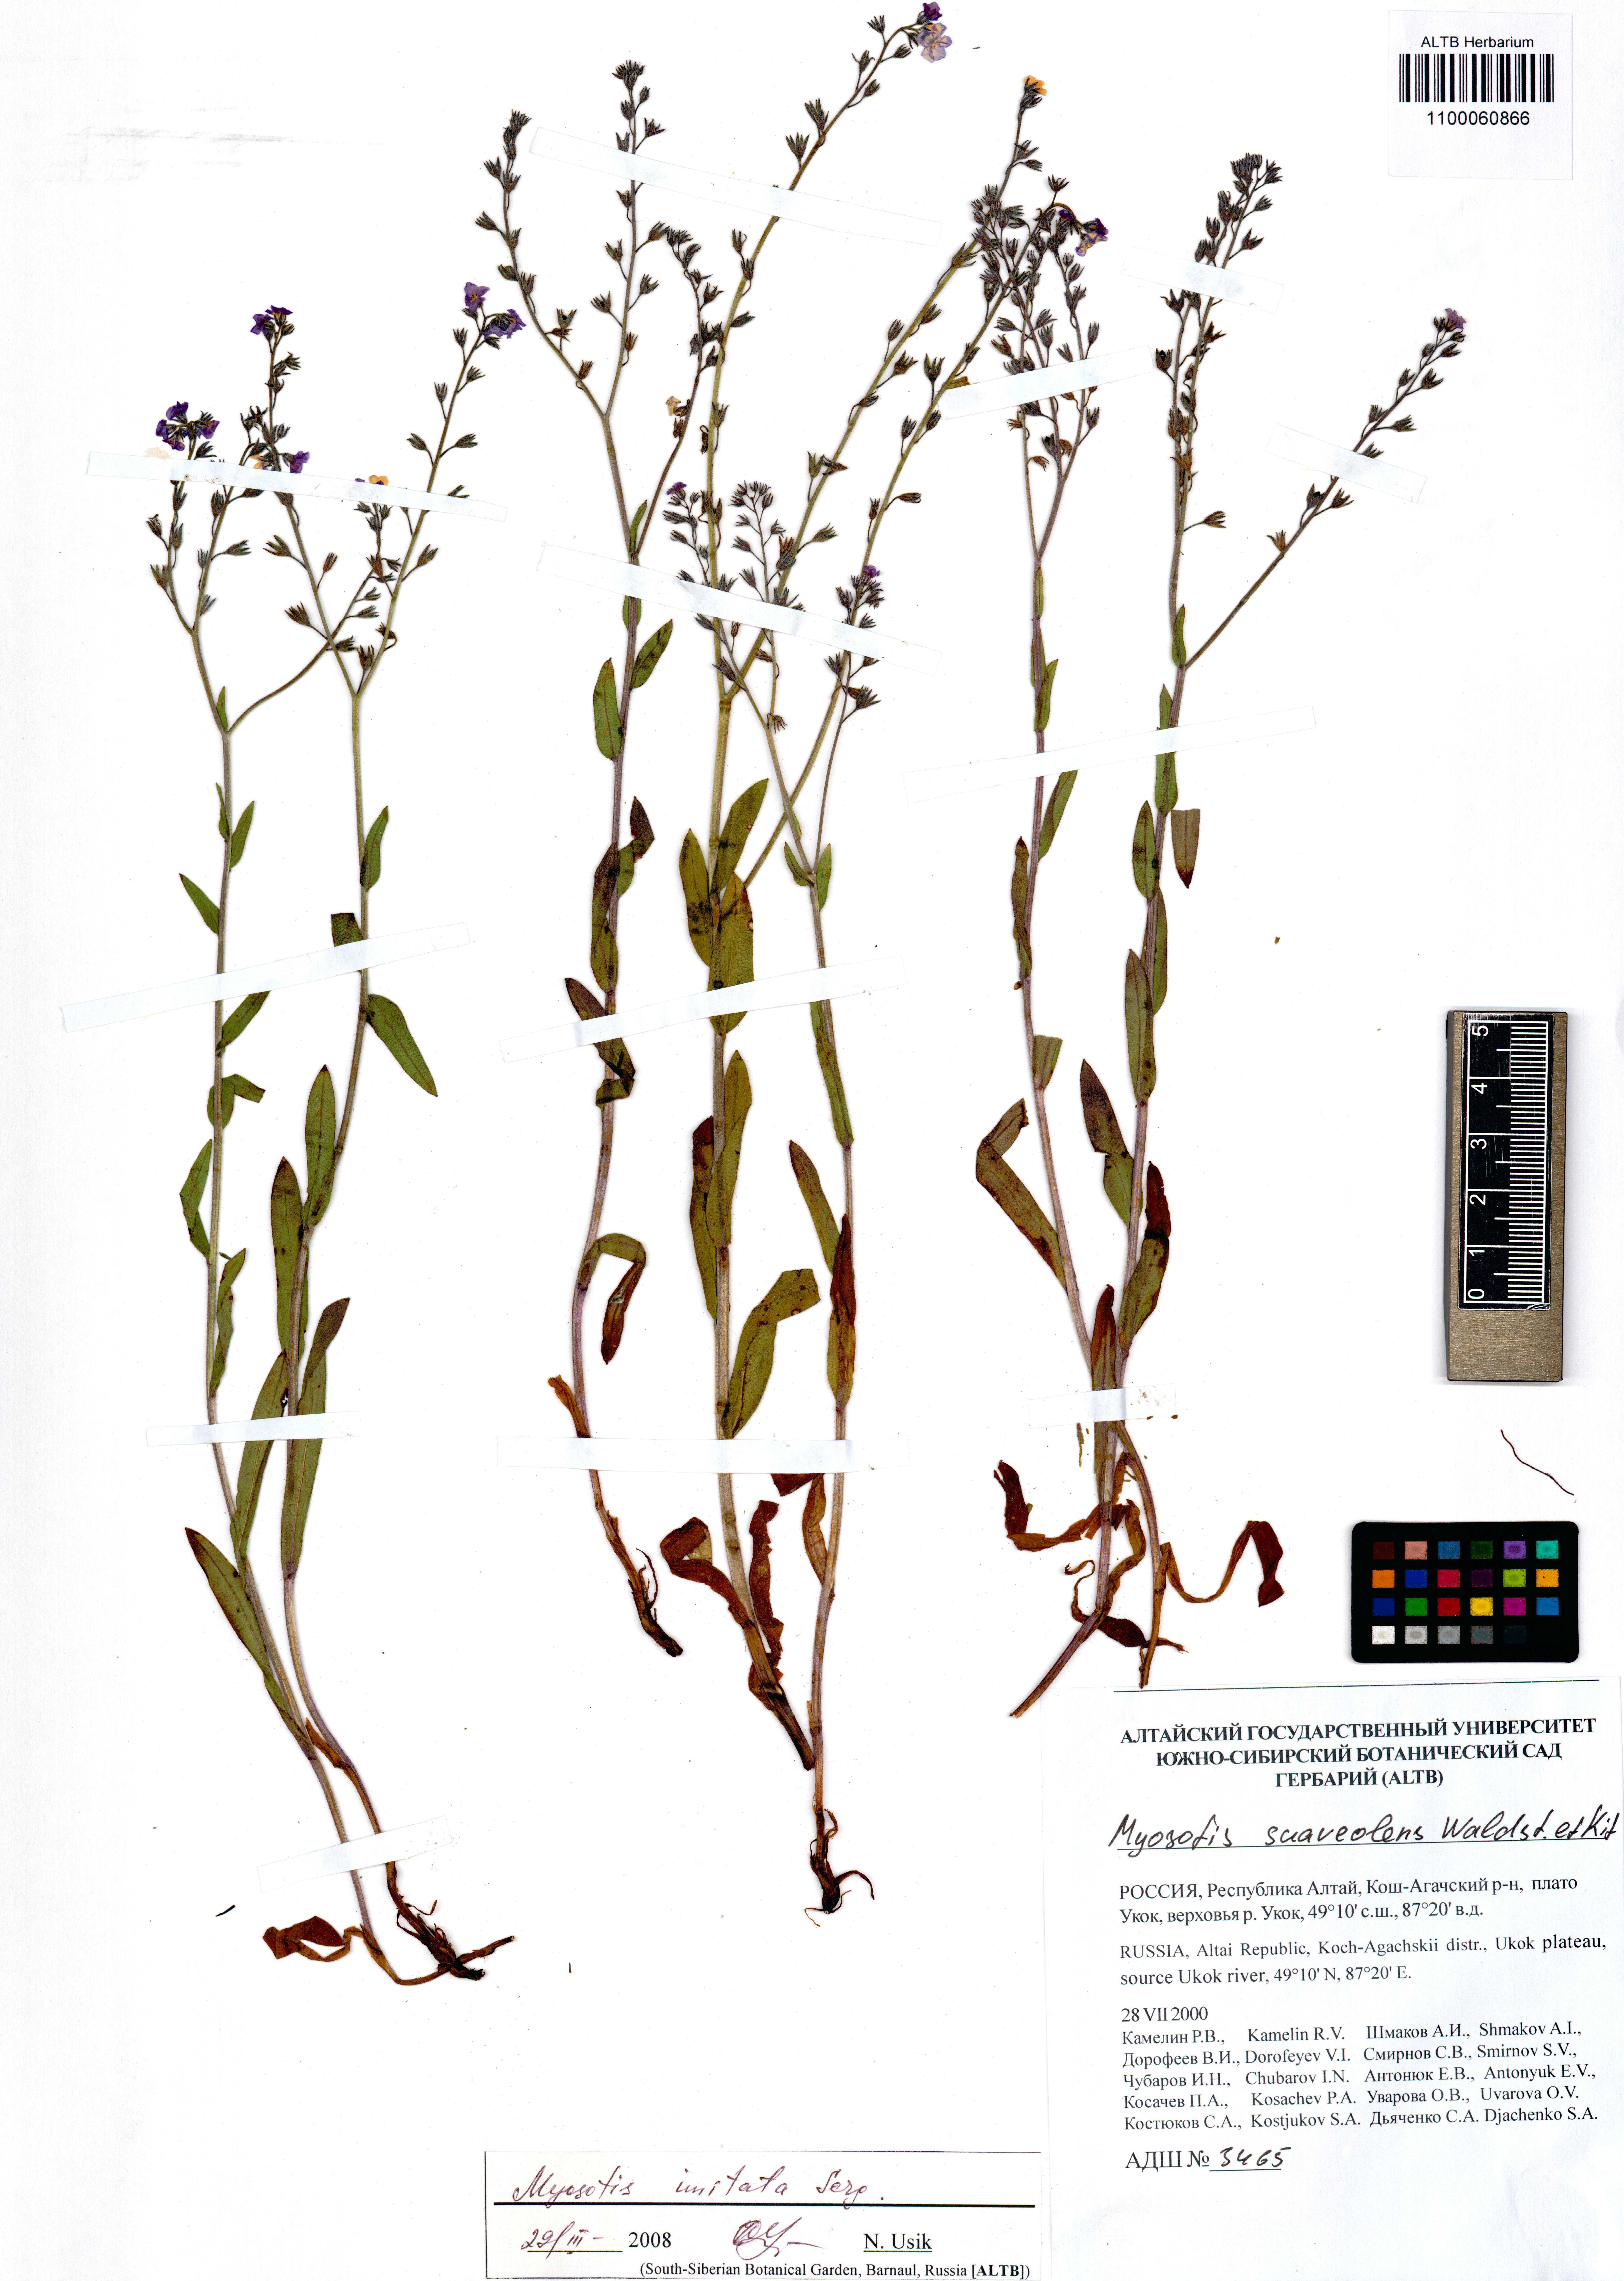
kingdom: Plantae
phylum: Tracheophyta
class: Magnoliopsida
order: Boraginales
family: Boraginaceae
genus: Myosotis
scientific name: Myosotis imitata
